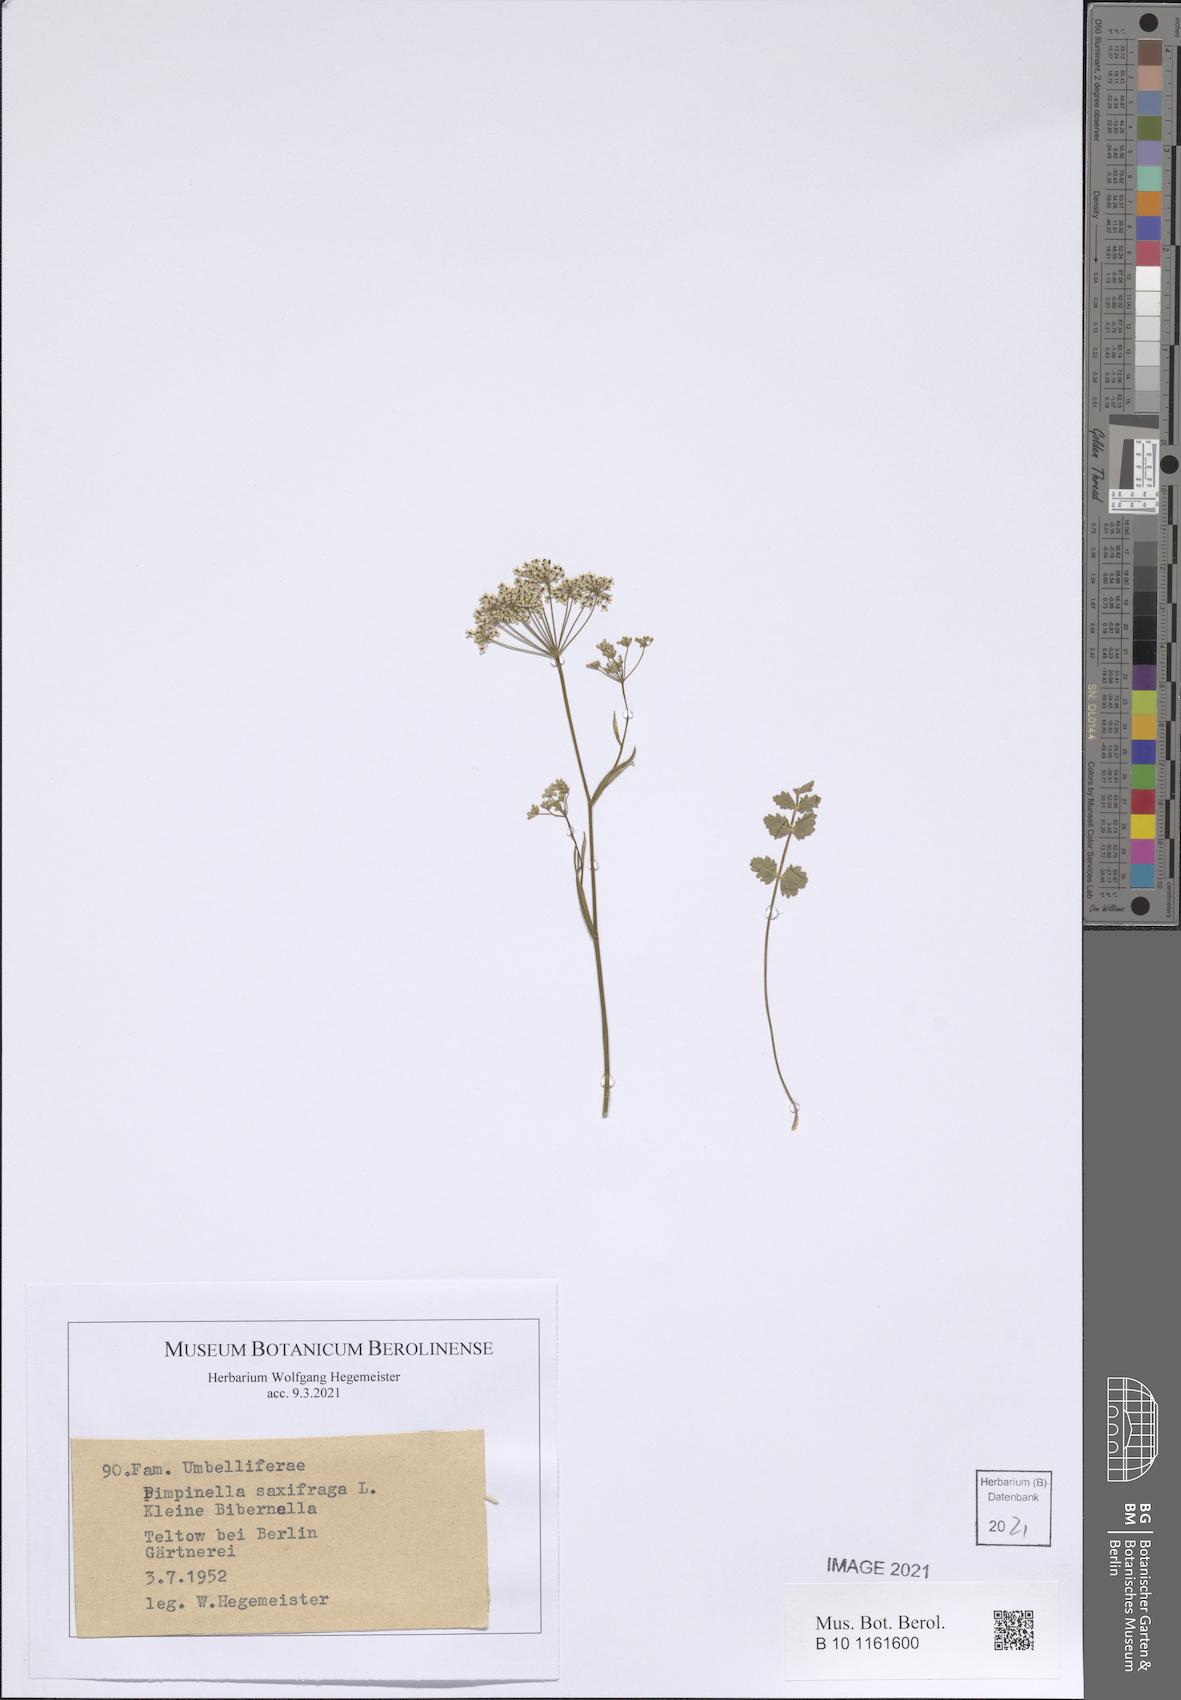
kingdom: Plantae
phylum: Tracheophyta
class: Magnoliopsida
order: Apiales
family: Apiaceae
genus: Pimpinella
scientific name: Pimpinella saxifraga
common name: Burnet-saxifrage
